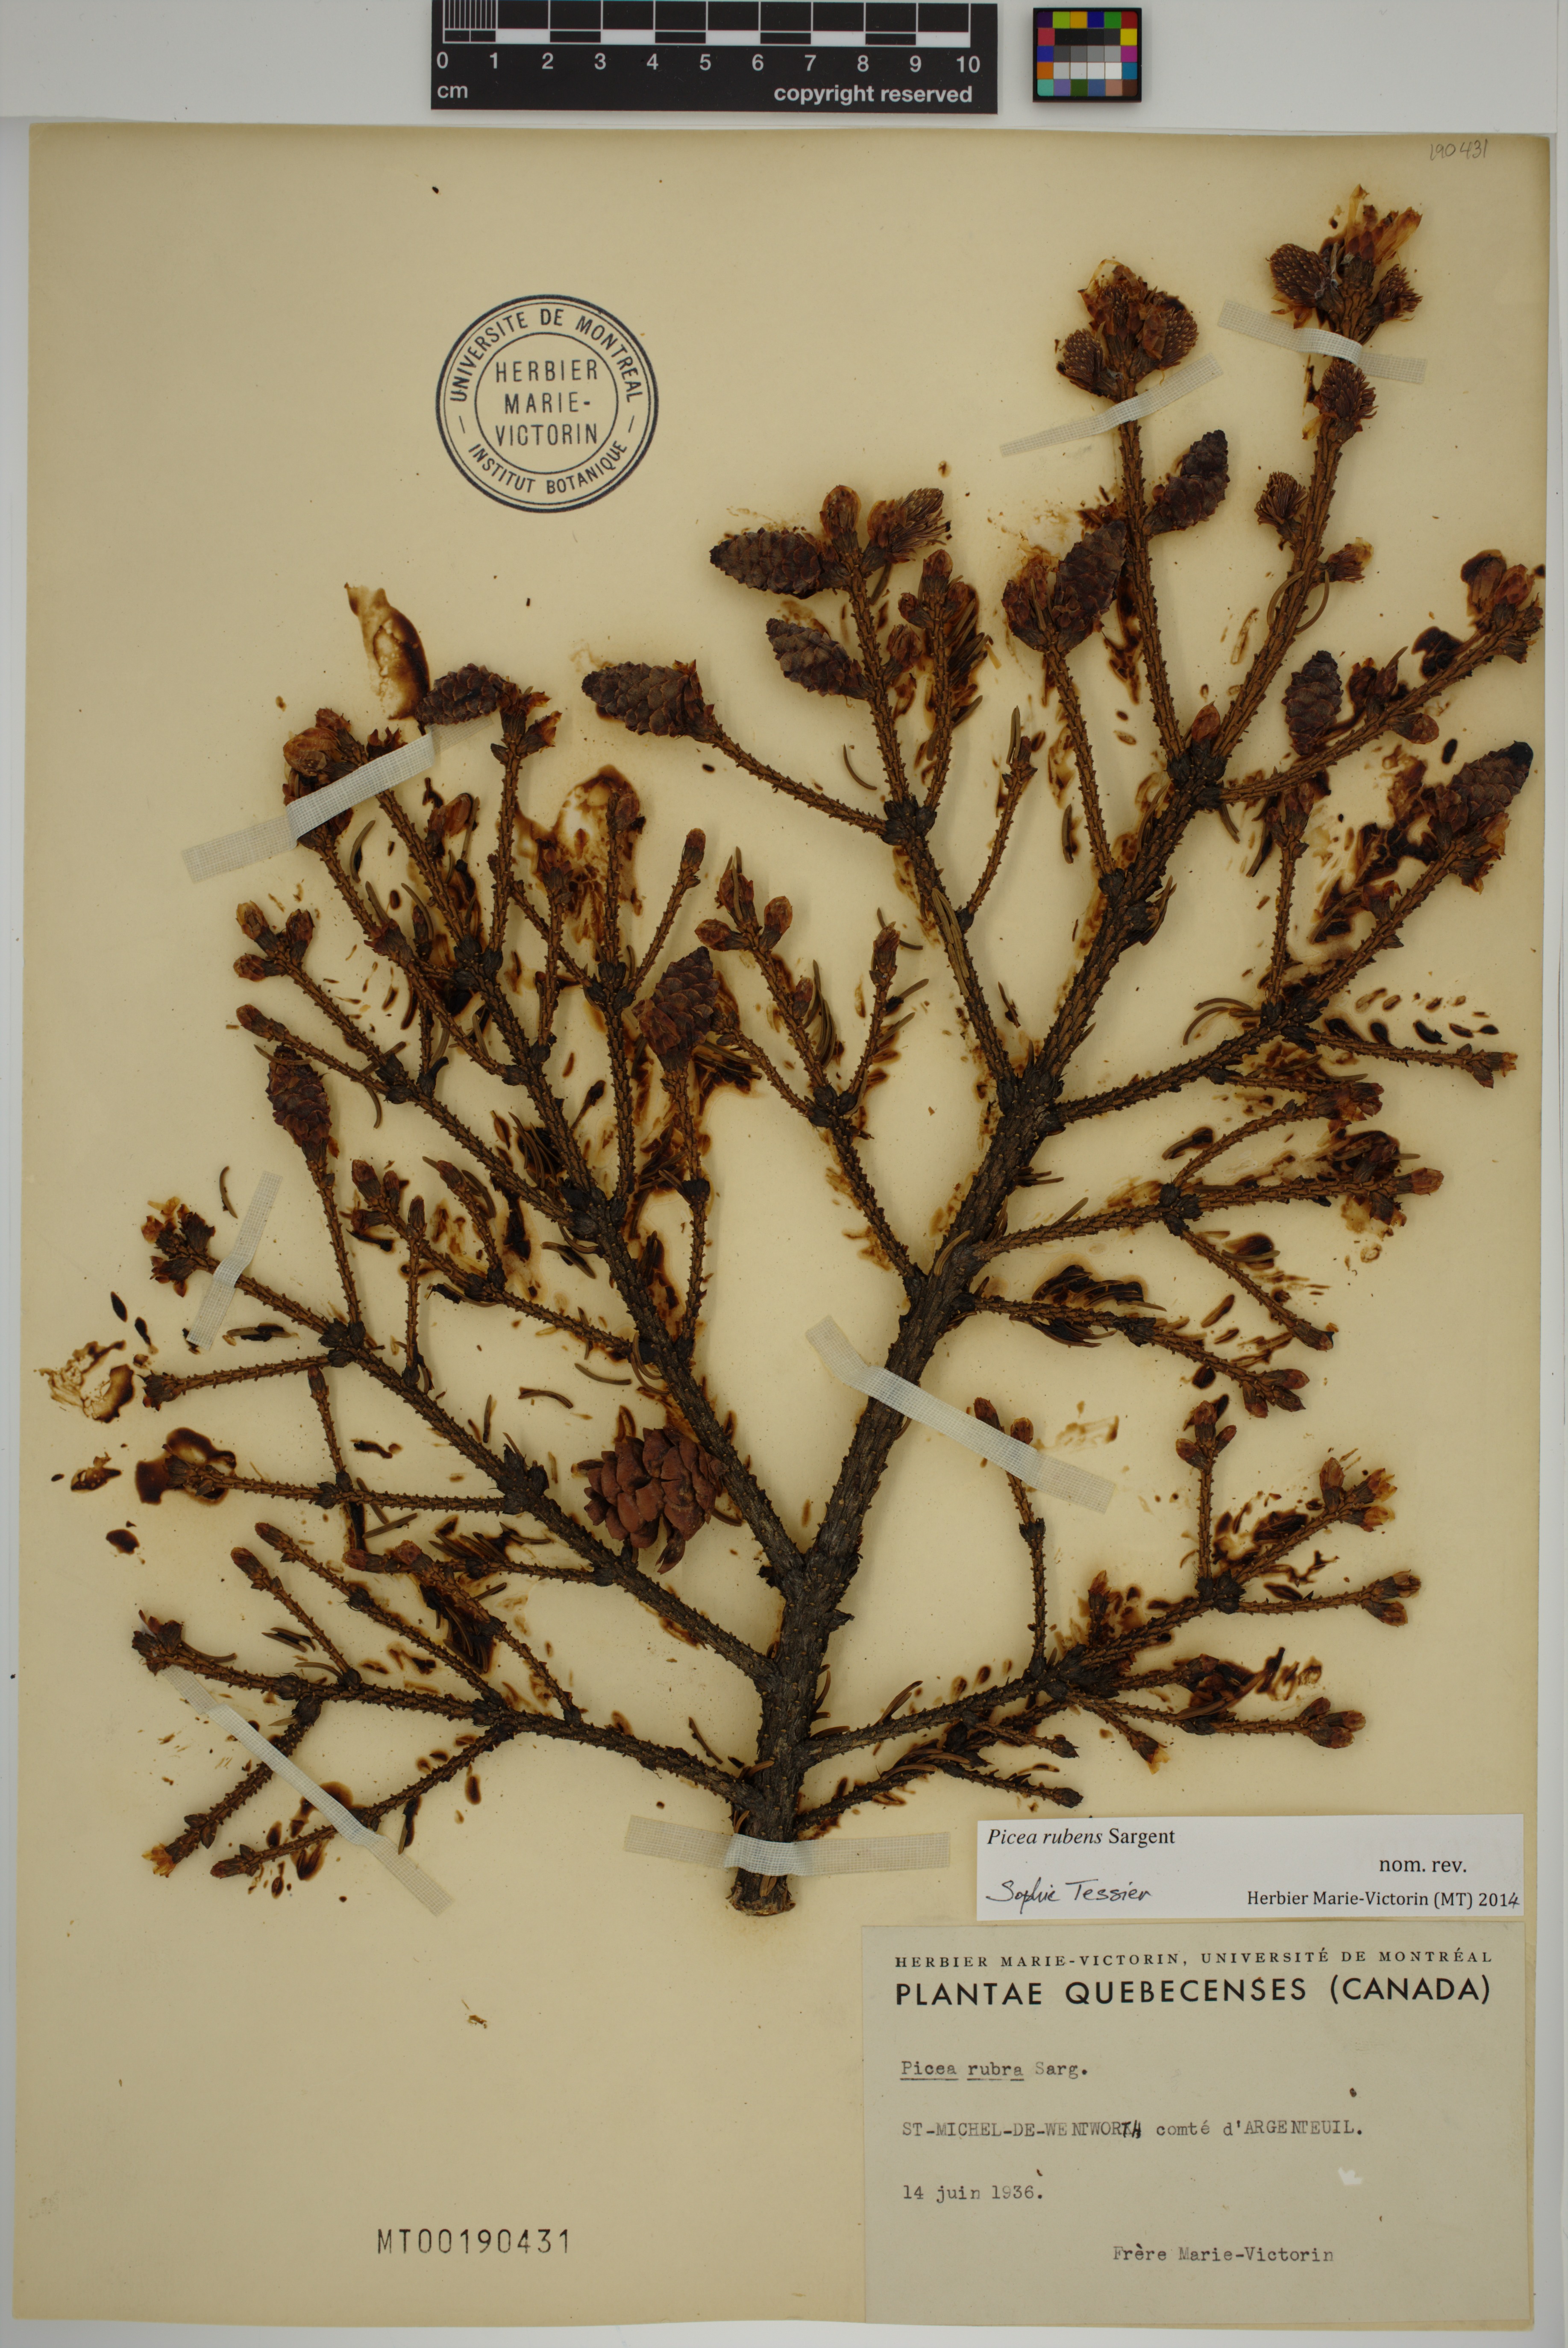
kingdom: Plantae
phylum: Tracheophyta
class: Pinopsida
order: Pinales
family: Pinaceae
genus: Picea
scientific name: Picea rubens
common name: Red spruce
